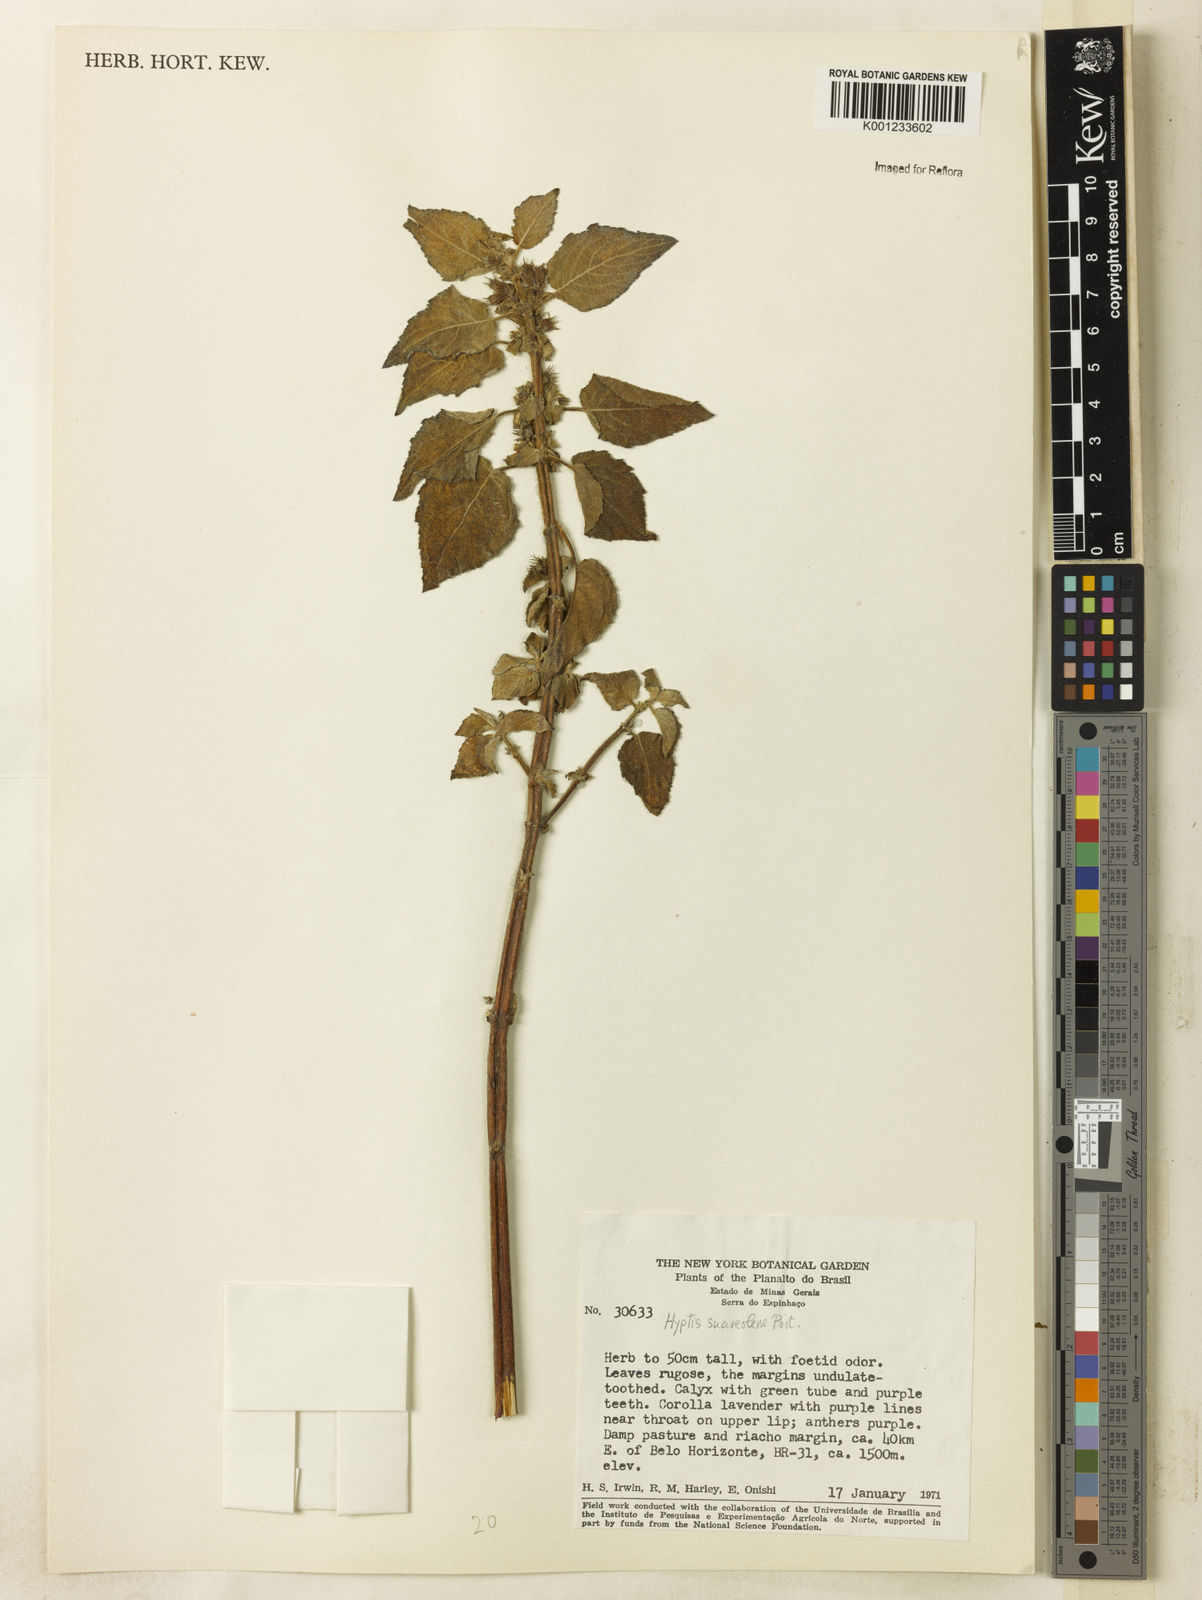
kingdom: Plantae
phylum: Tracheophyta
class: Magnoliopsida
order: Lamiales
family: Lamiaceae
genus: Mesosphaerum
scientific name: Mesosphaerum suaveolens
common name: Pignut
